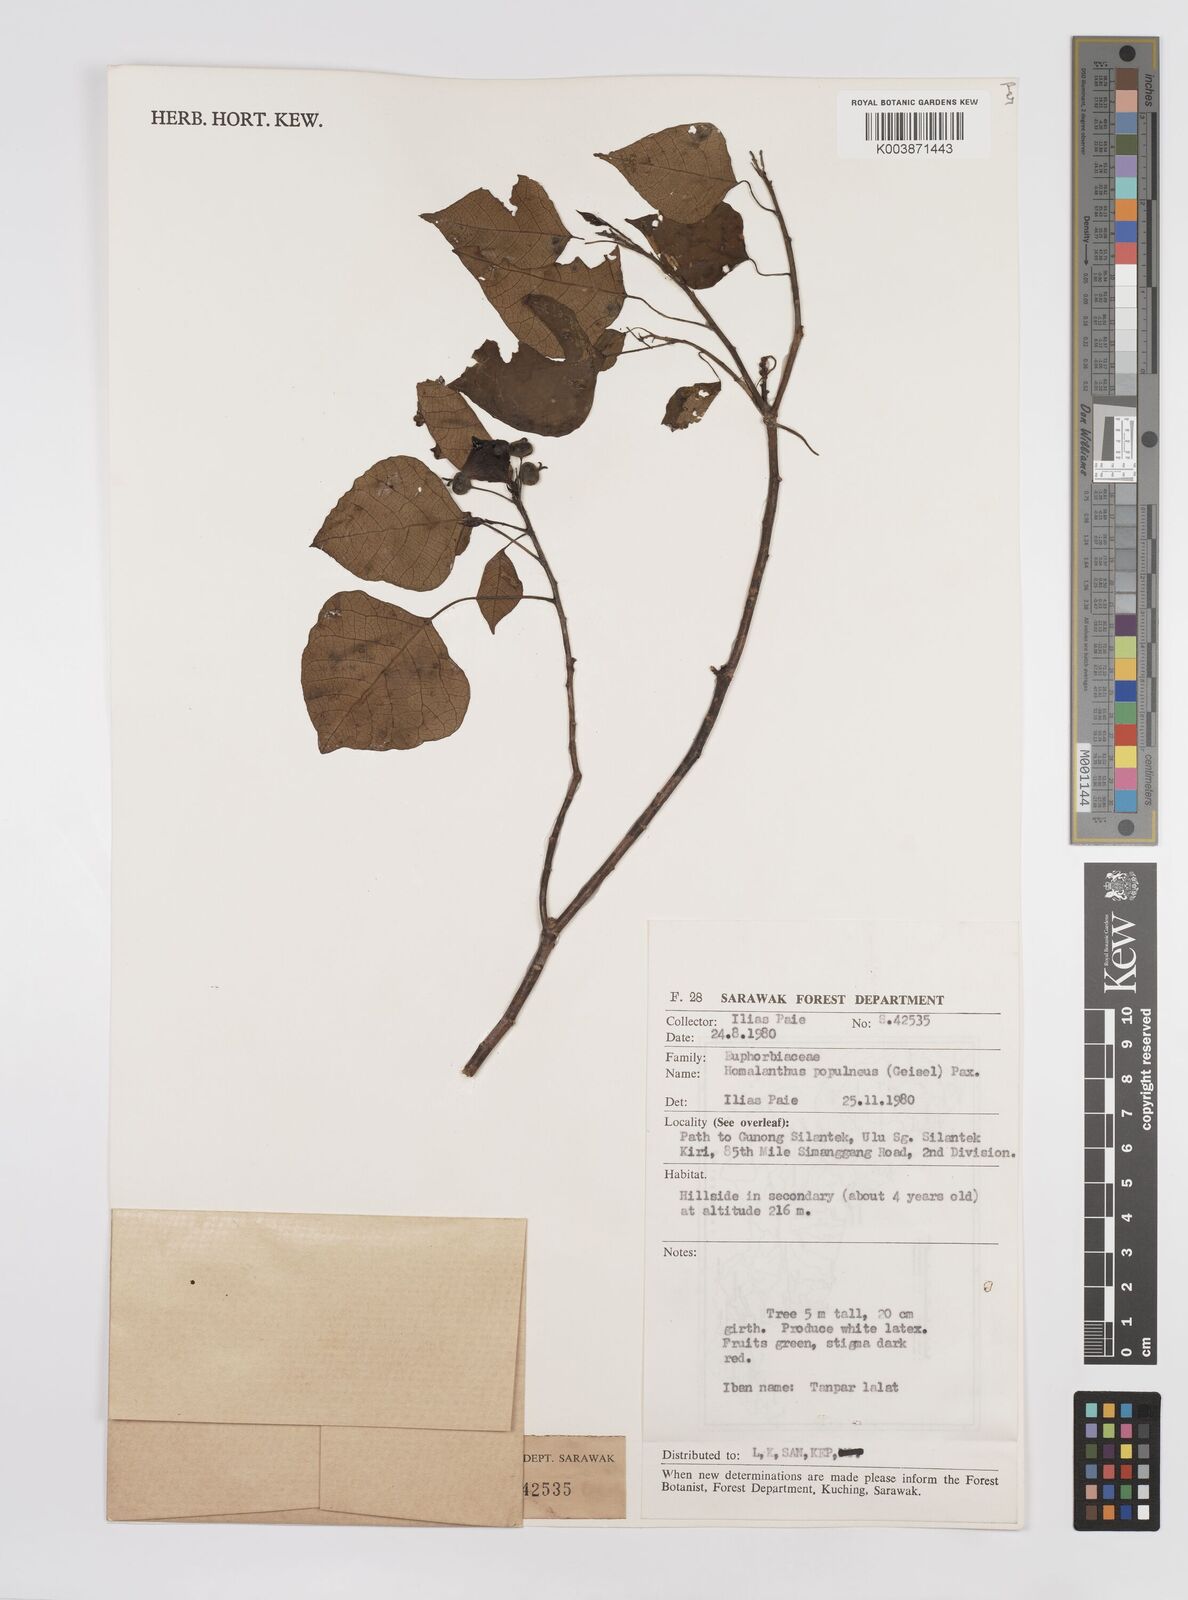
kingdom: Plantae
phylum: Tracheophyta
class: Magnoliopsida
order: Malpighiales
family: Euphorbiaceae
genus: Homalanthus
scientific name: Homalanthus populneus
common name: Spurge
